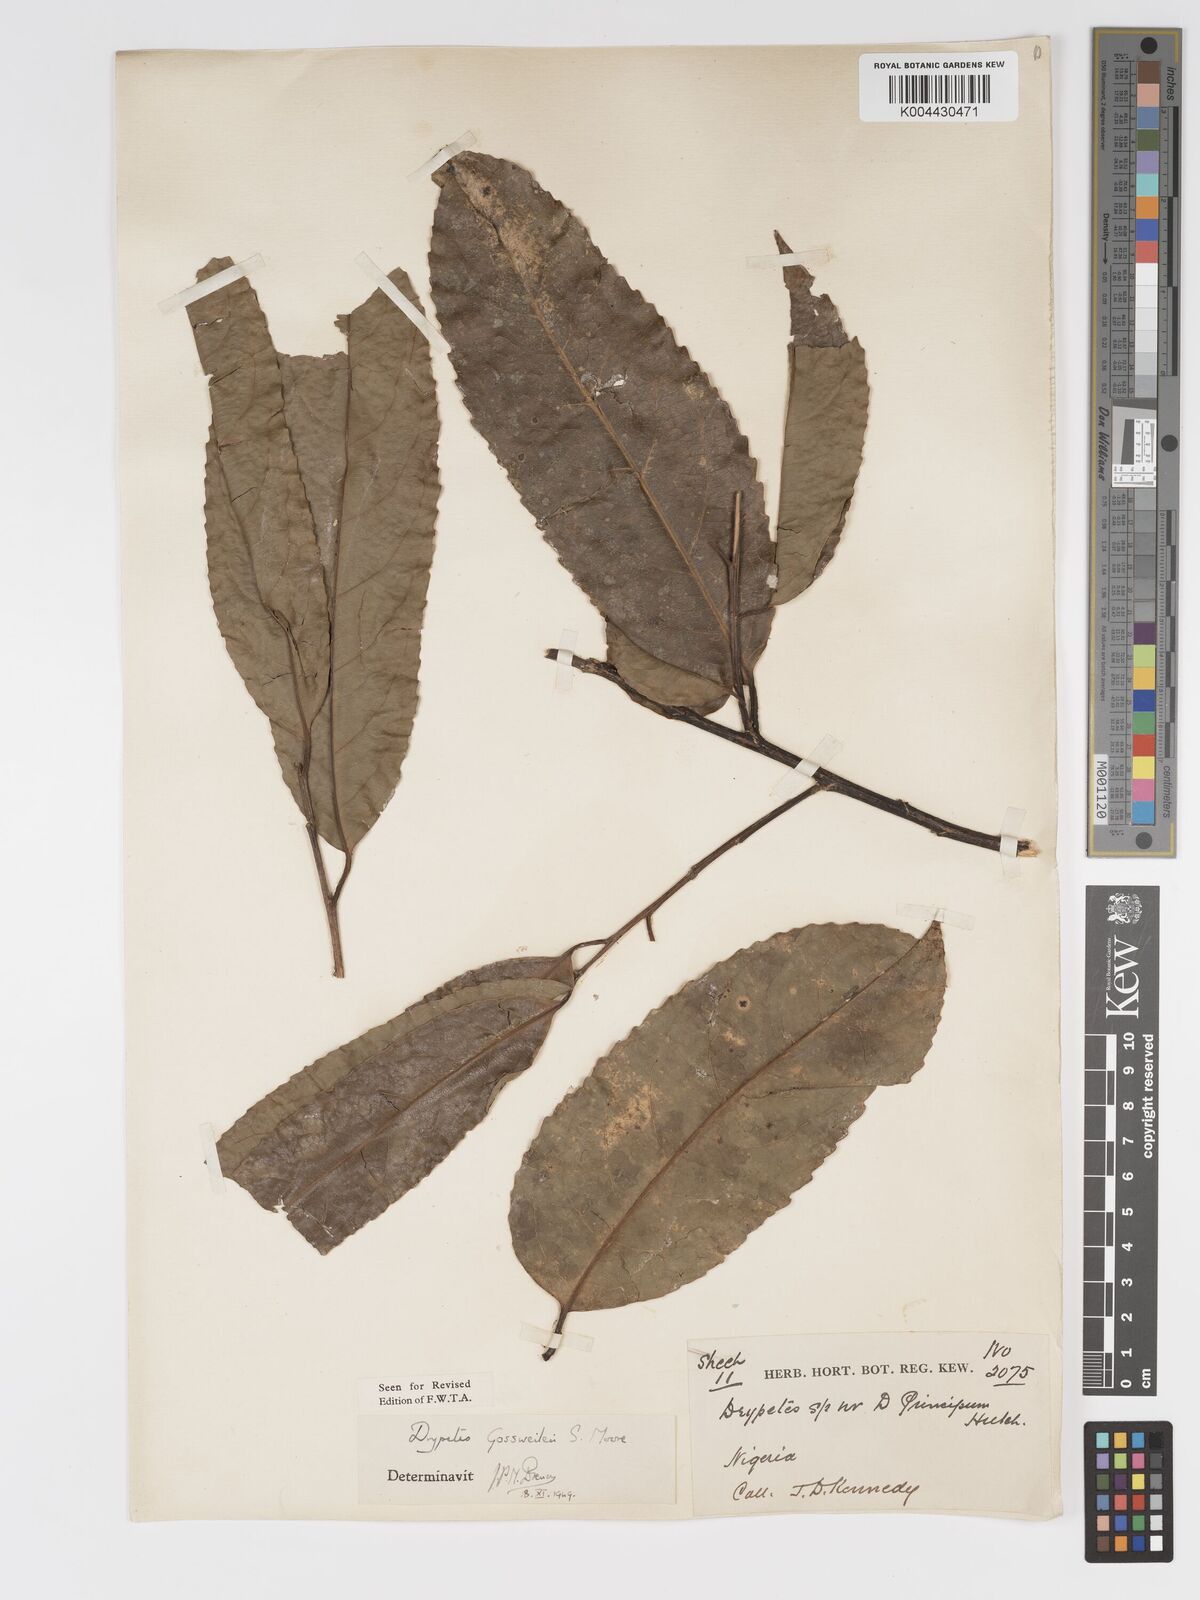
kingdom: Plantae
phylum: Tracheophyta
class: Magnoliopsida
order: Malpighiales
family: Putranjivaceae
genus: Drypetes
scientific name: Drypetes gossweileri
